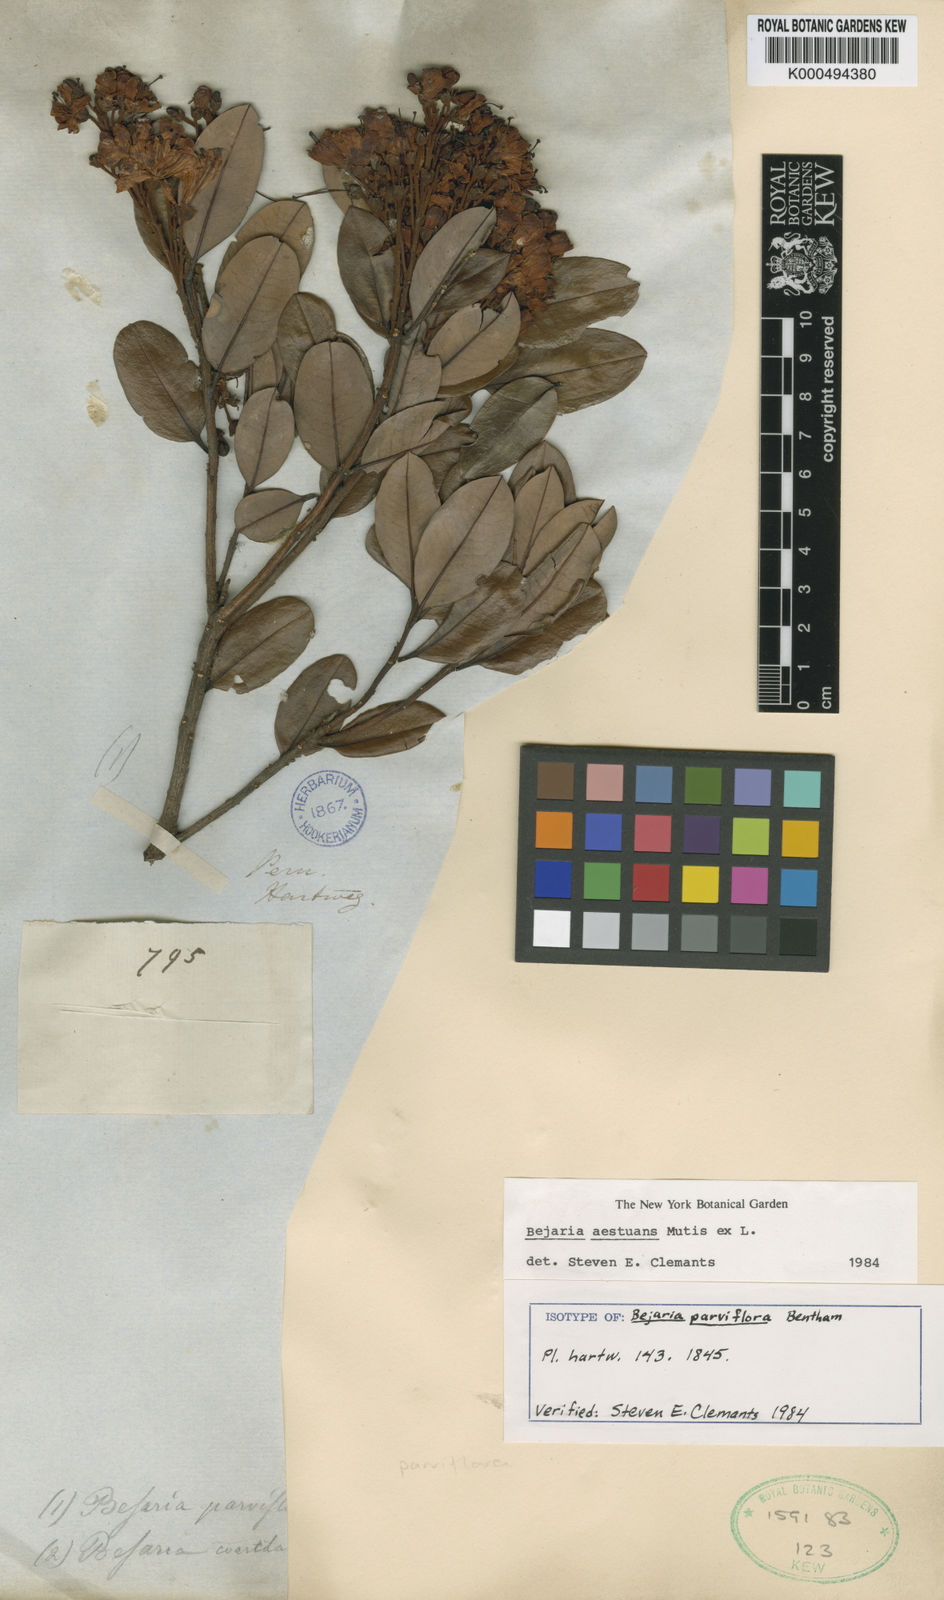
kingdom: Plantae
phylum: Tracheophyta
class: Magnoliopsida
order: Ericales
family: Ericaceae
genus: Bejaria
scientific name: Bejaria aestuans
